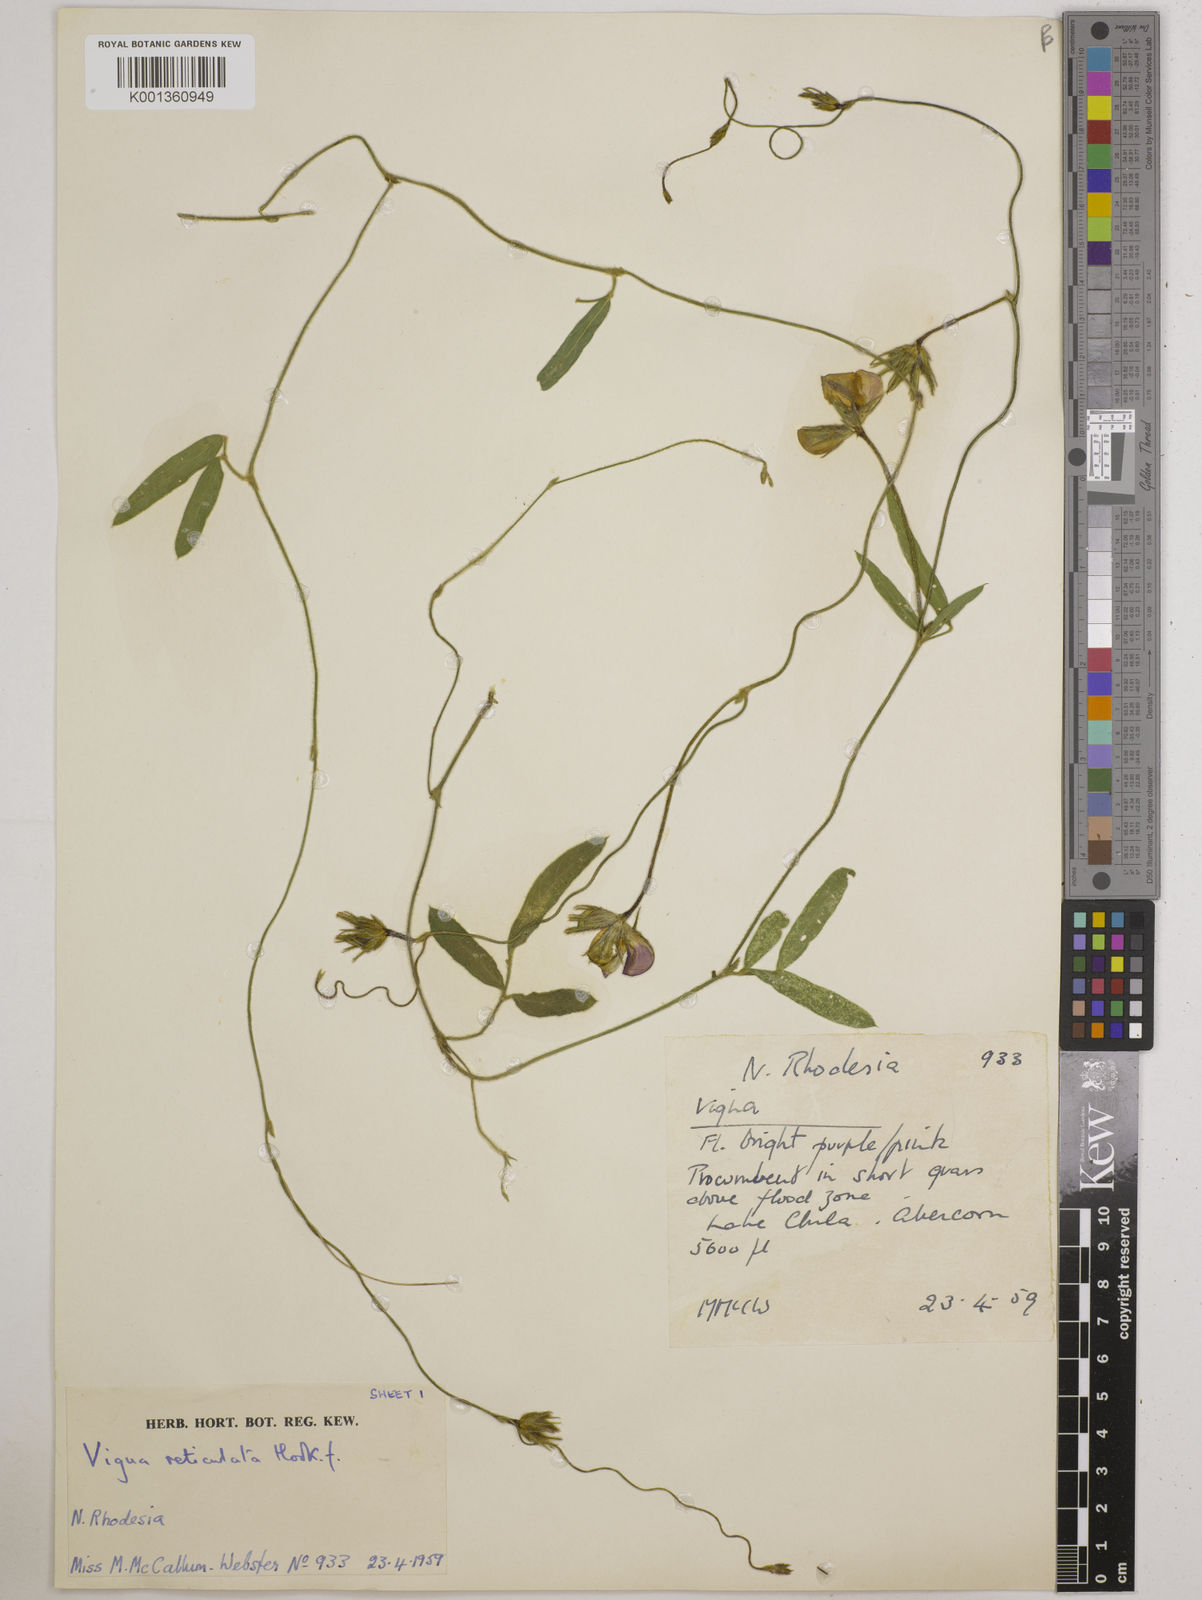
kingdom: Plantae
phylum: Tracheophyta
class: Magnoliopsida
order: Fabales
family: Fabaceae
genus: Vigna
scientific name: Vigna reticulata
